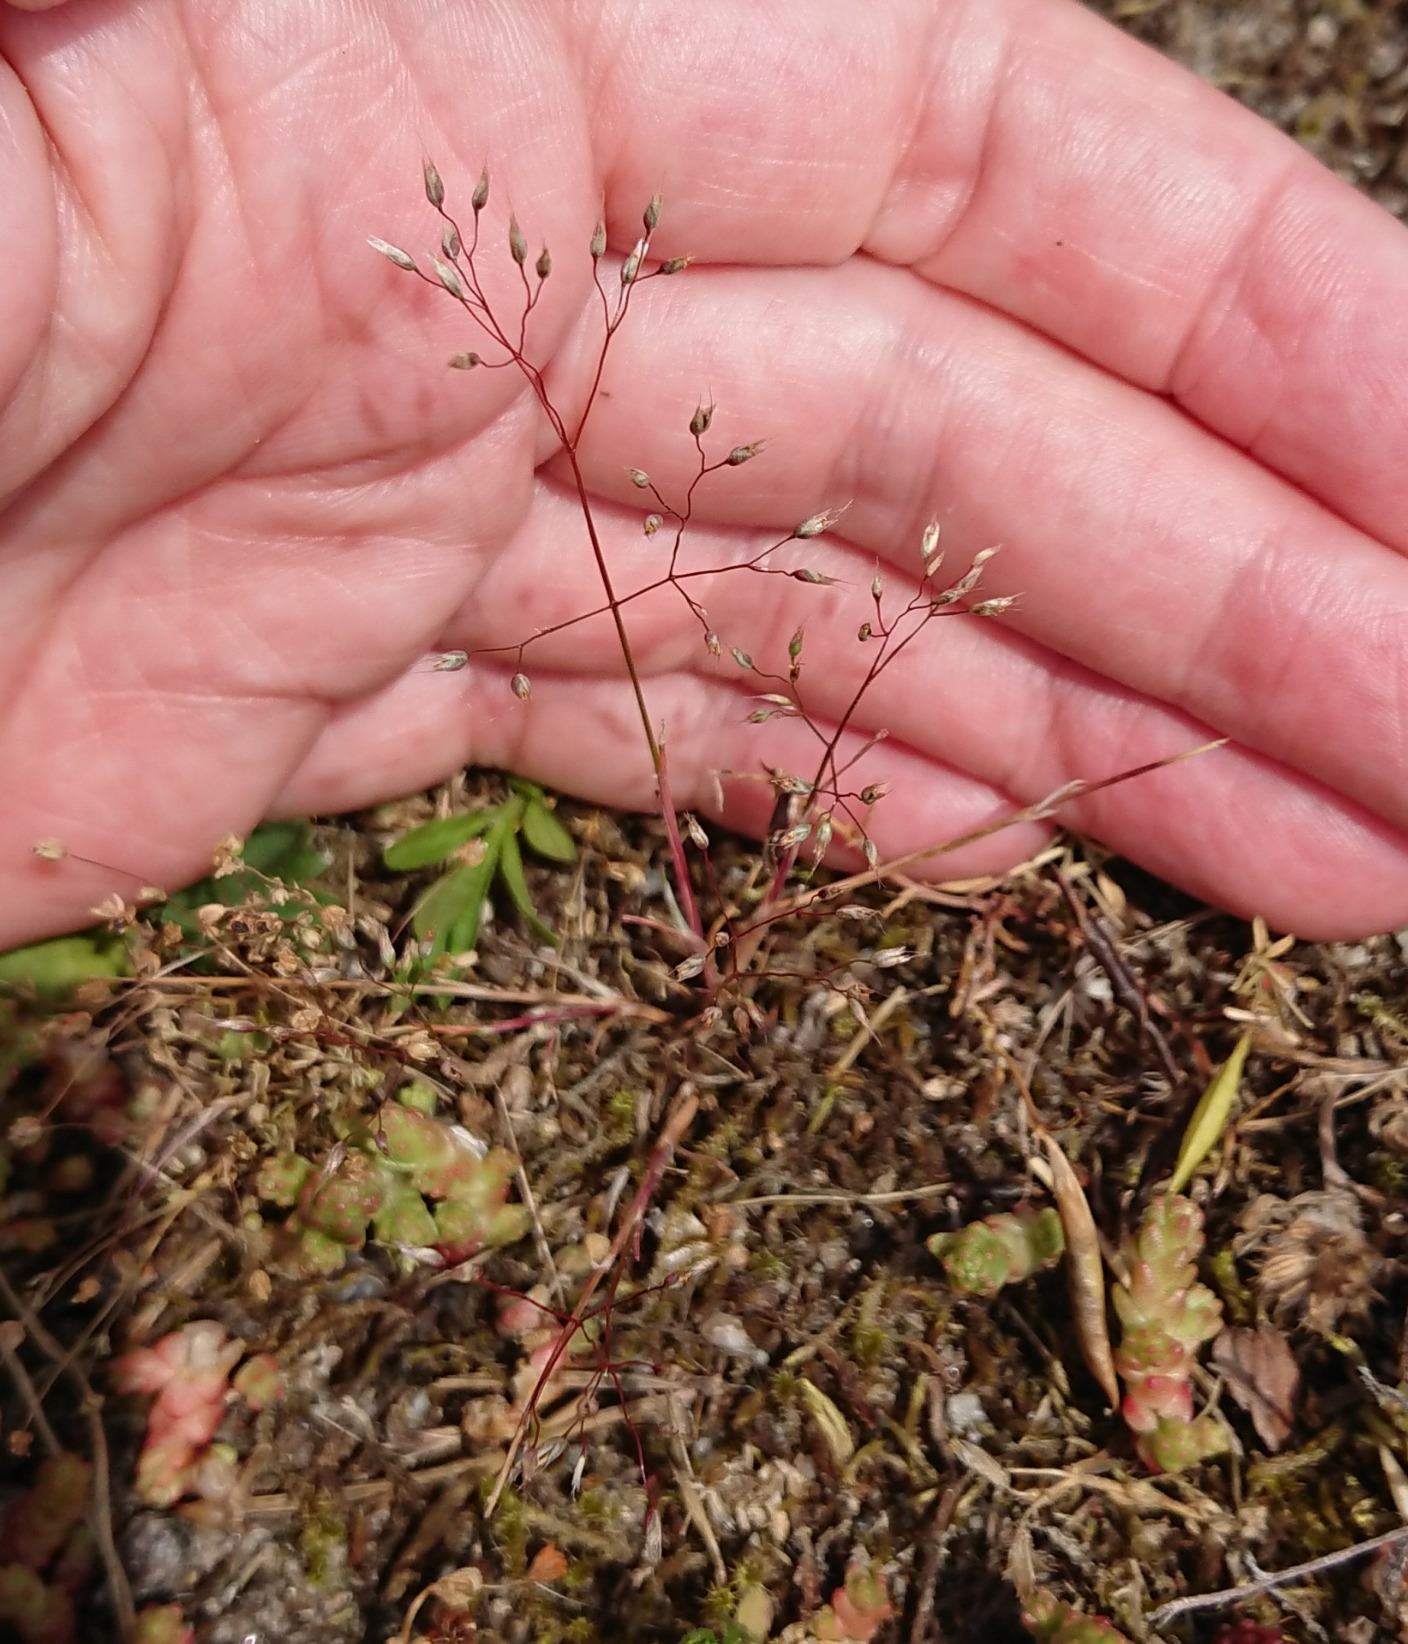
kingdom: Plantae
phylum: Tracheophyta
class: Liliopsida
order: Poales
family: Poaceae
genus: Aira
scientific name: Aira caryophyllea
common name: Udspærret dværgbunke
